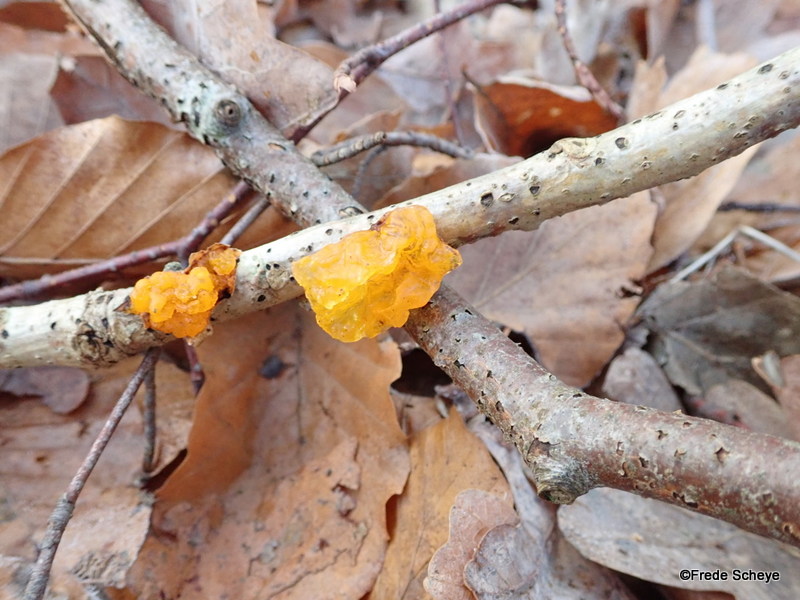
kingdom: Fungi
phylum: Basidiomycota
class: Tremellomycetes
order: Tremellales
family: Tremellaceae
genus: Tremella
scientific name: Tremella mesenterica
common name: gul bævresvamp
